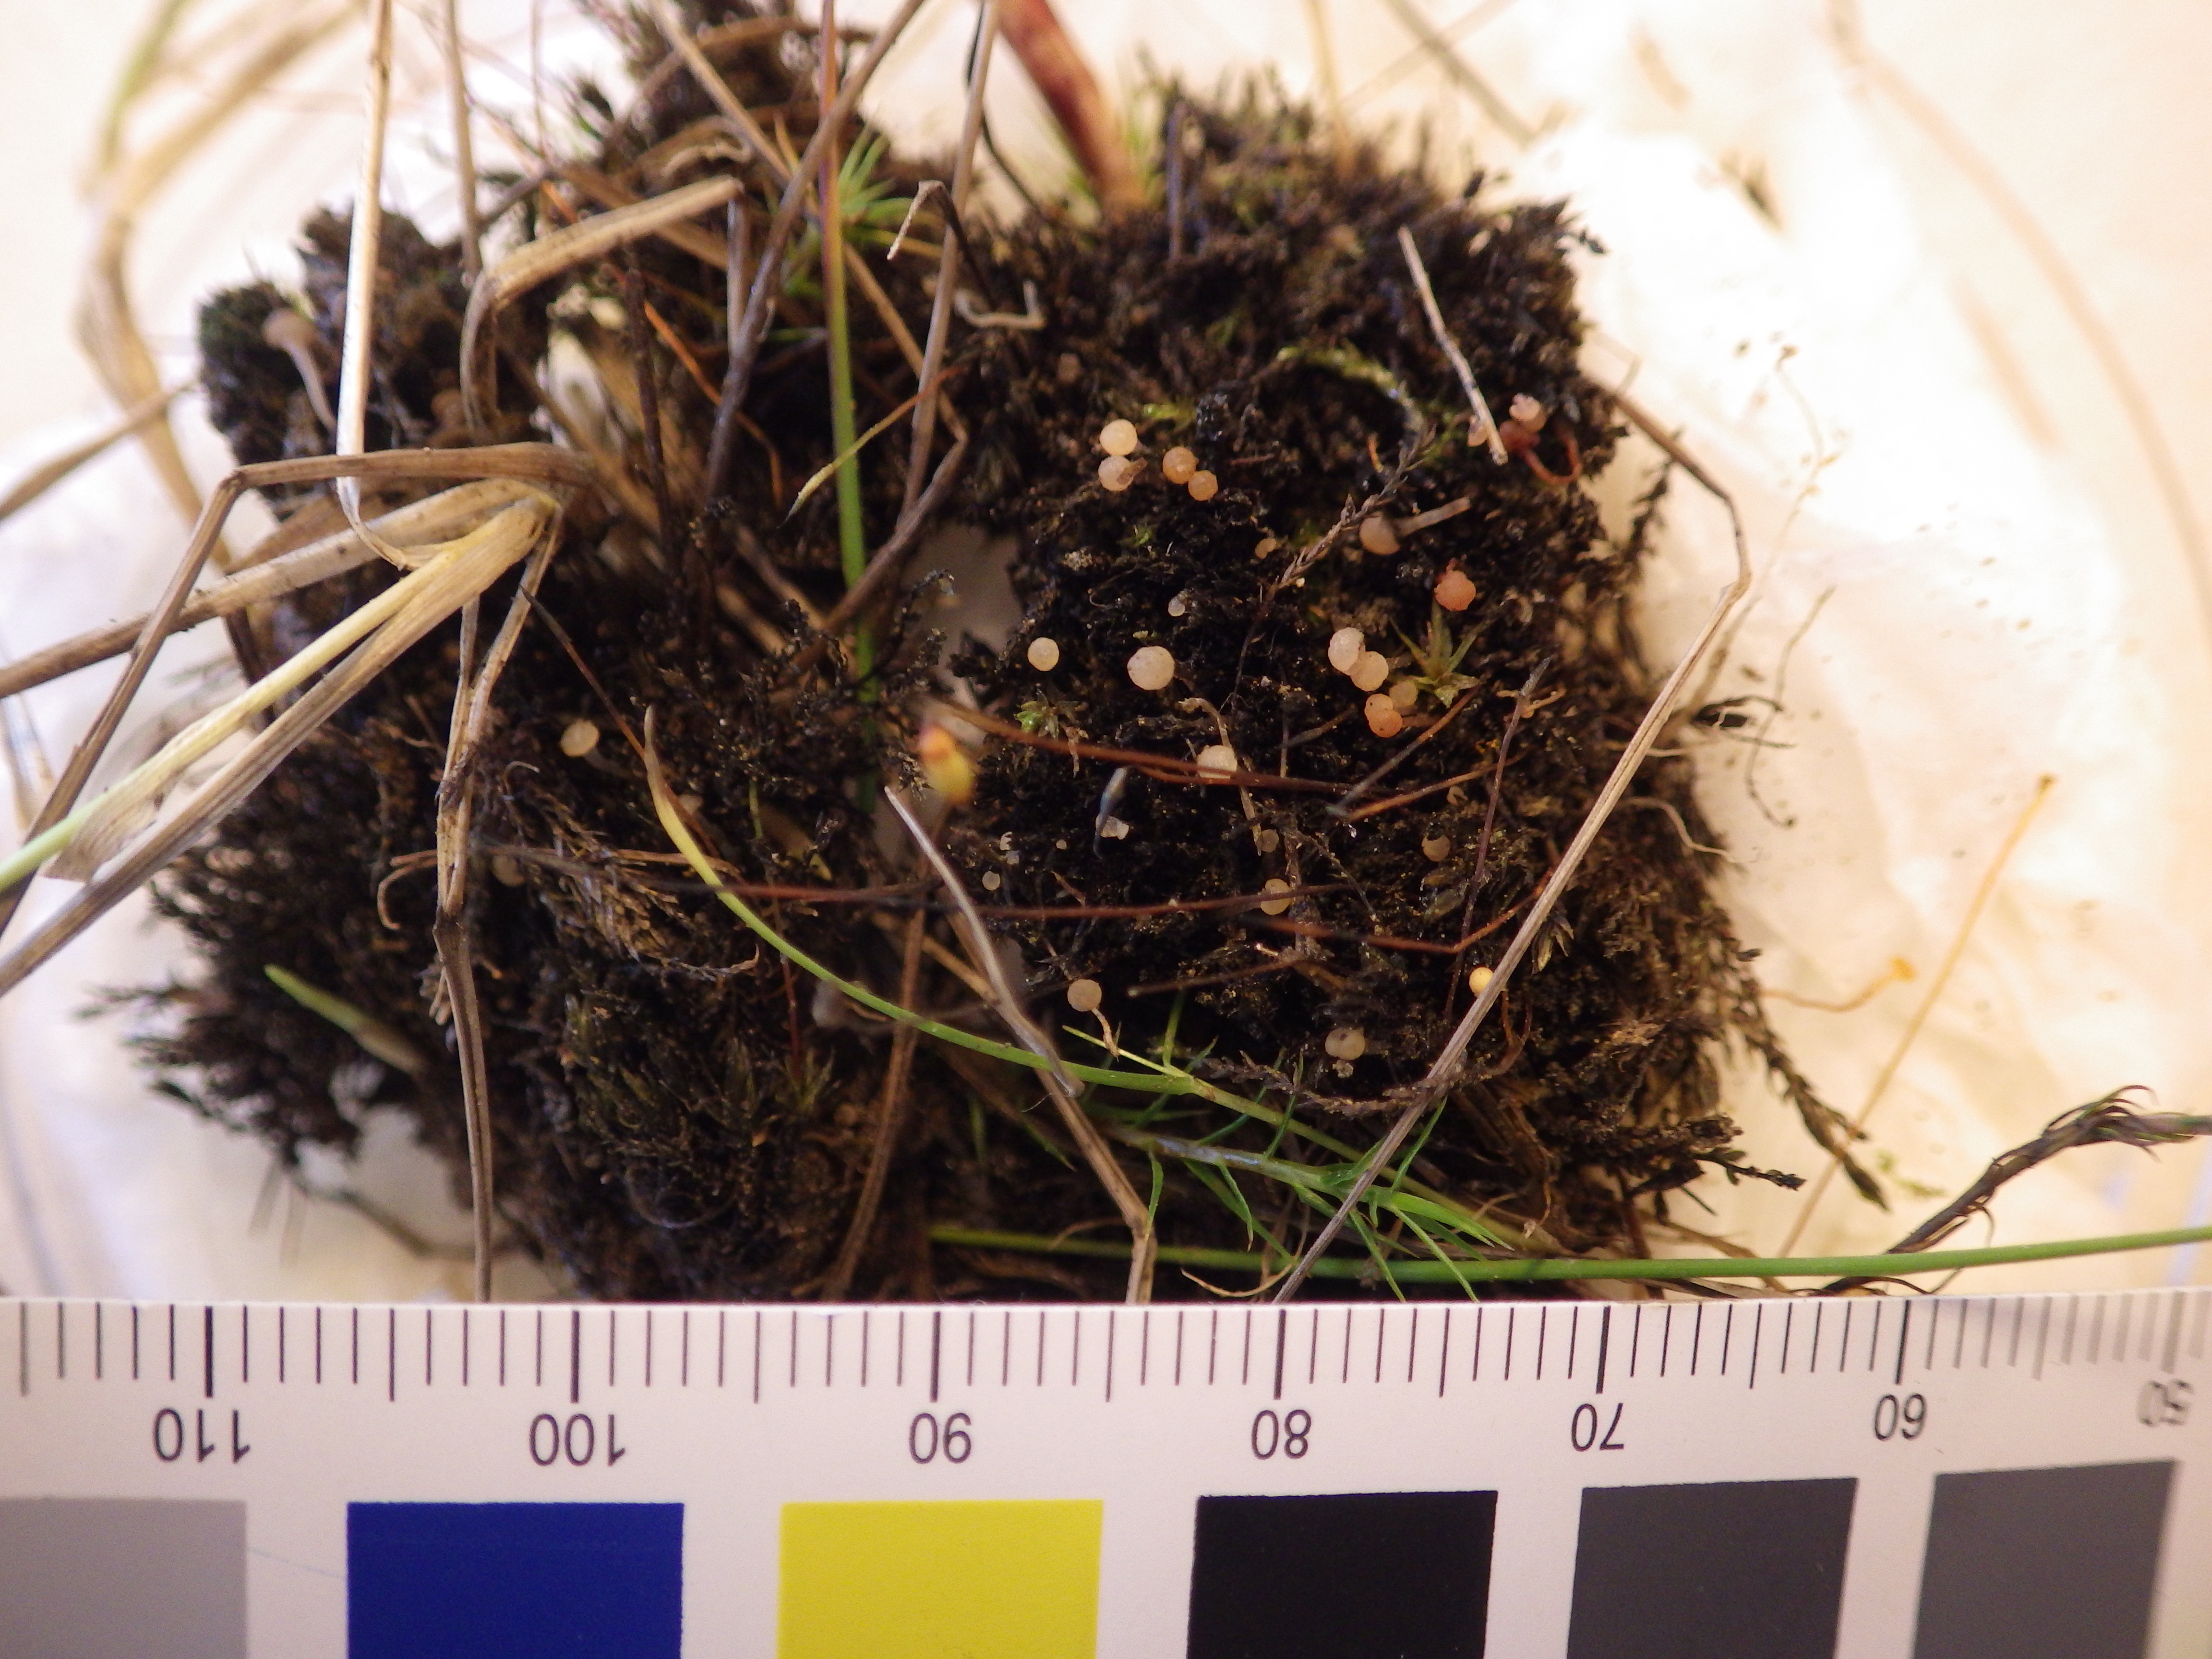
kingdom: Fungi
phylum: Ascomycota
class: Leotiomycetes
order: Helotiales
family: Tricladiaceae
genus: Cudoniella
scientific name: Cudoniella
